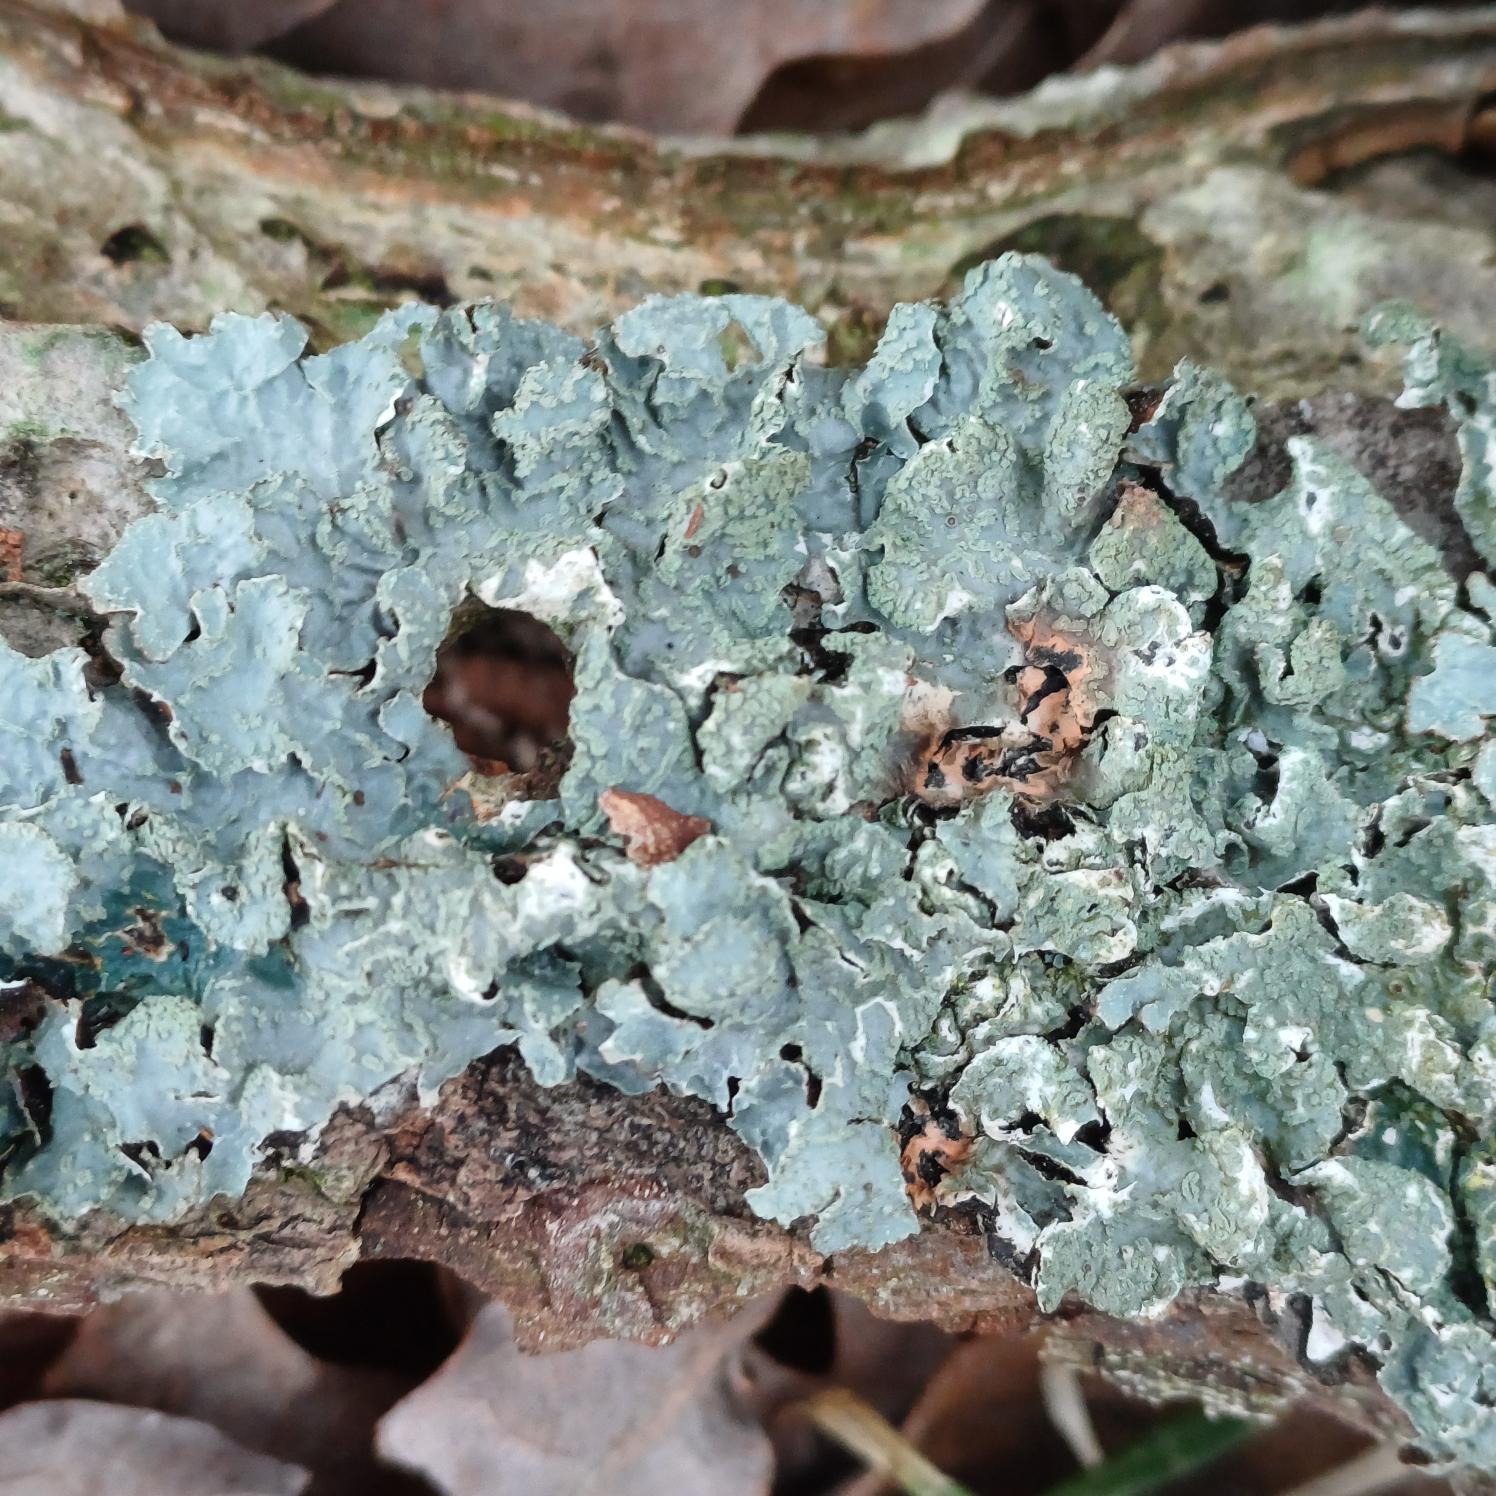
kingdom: Fungi
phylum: Ascomycota
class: Lecanoromycetes
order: Lecanorales
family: Parmeliaceae
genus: Parmelia
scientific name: Parmelia sulcata
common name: Rynket skållav
